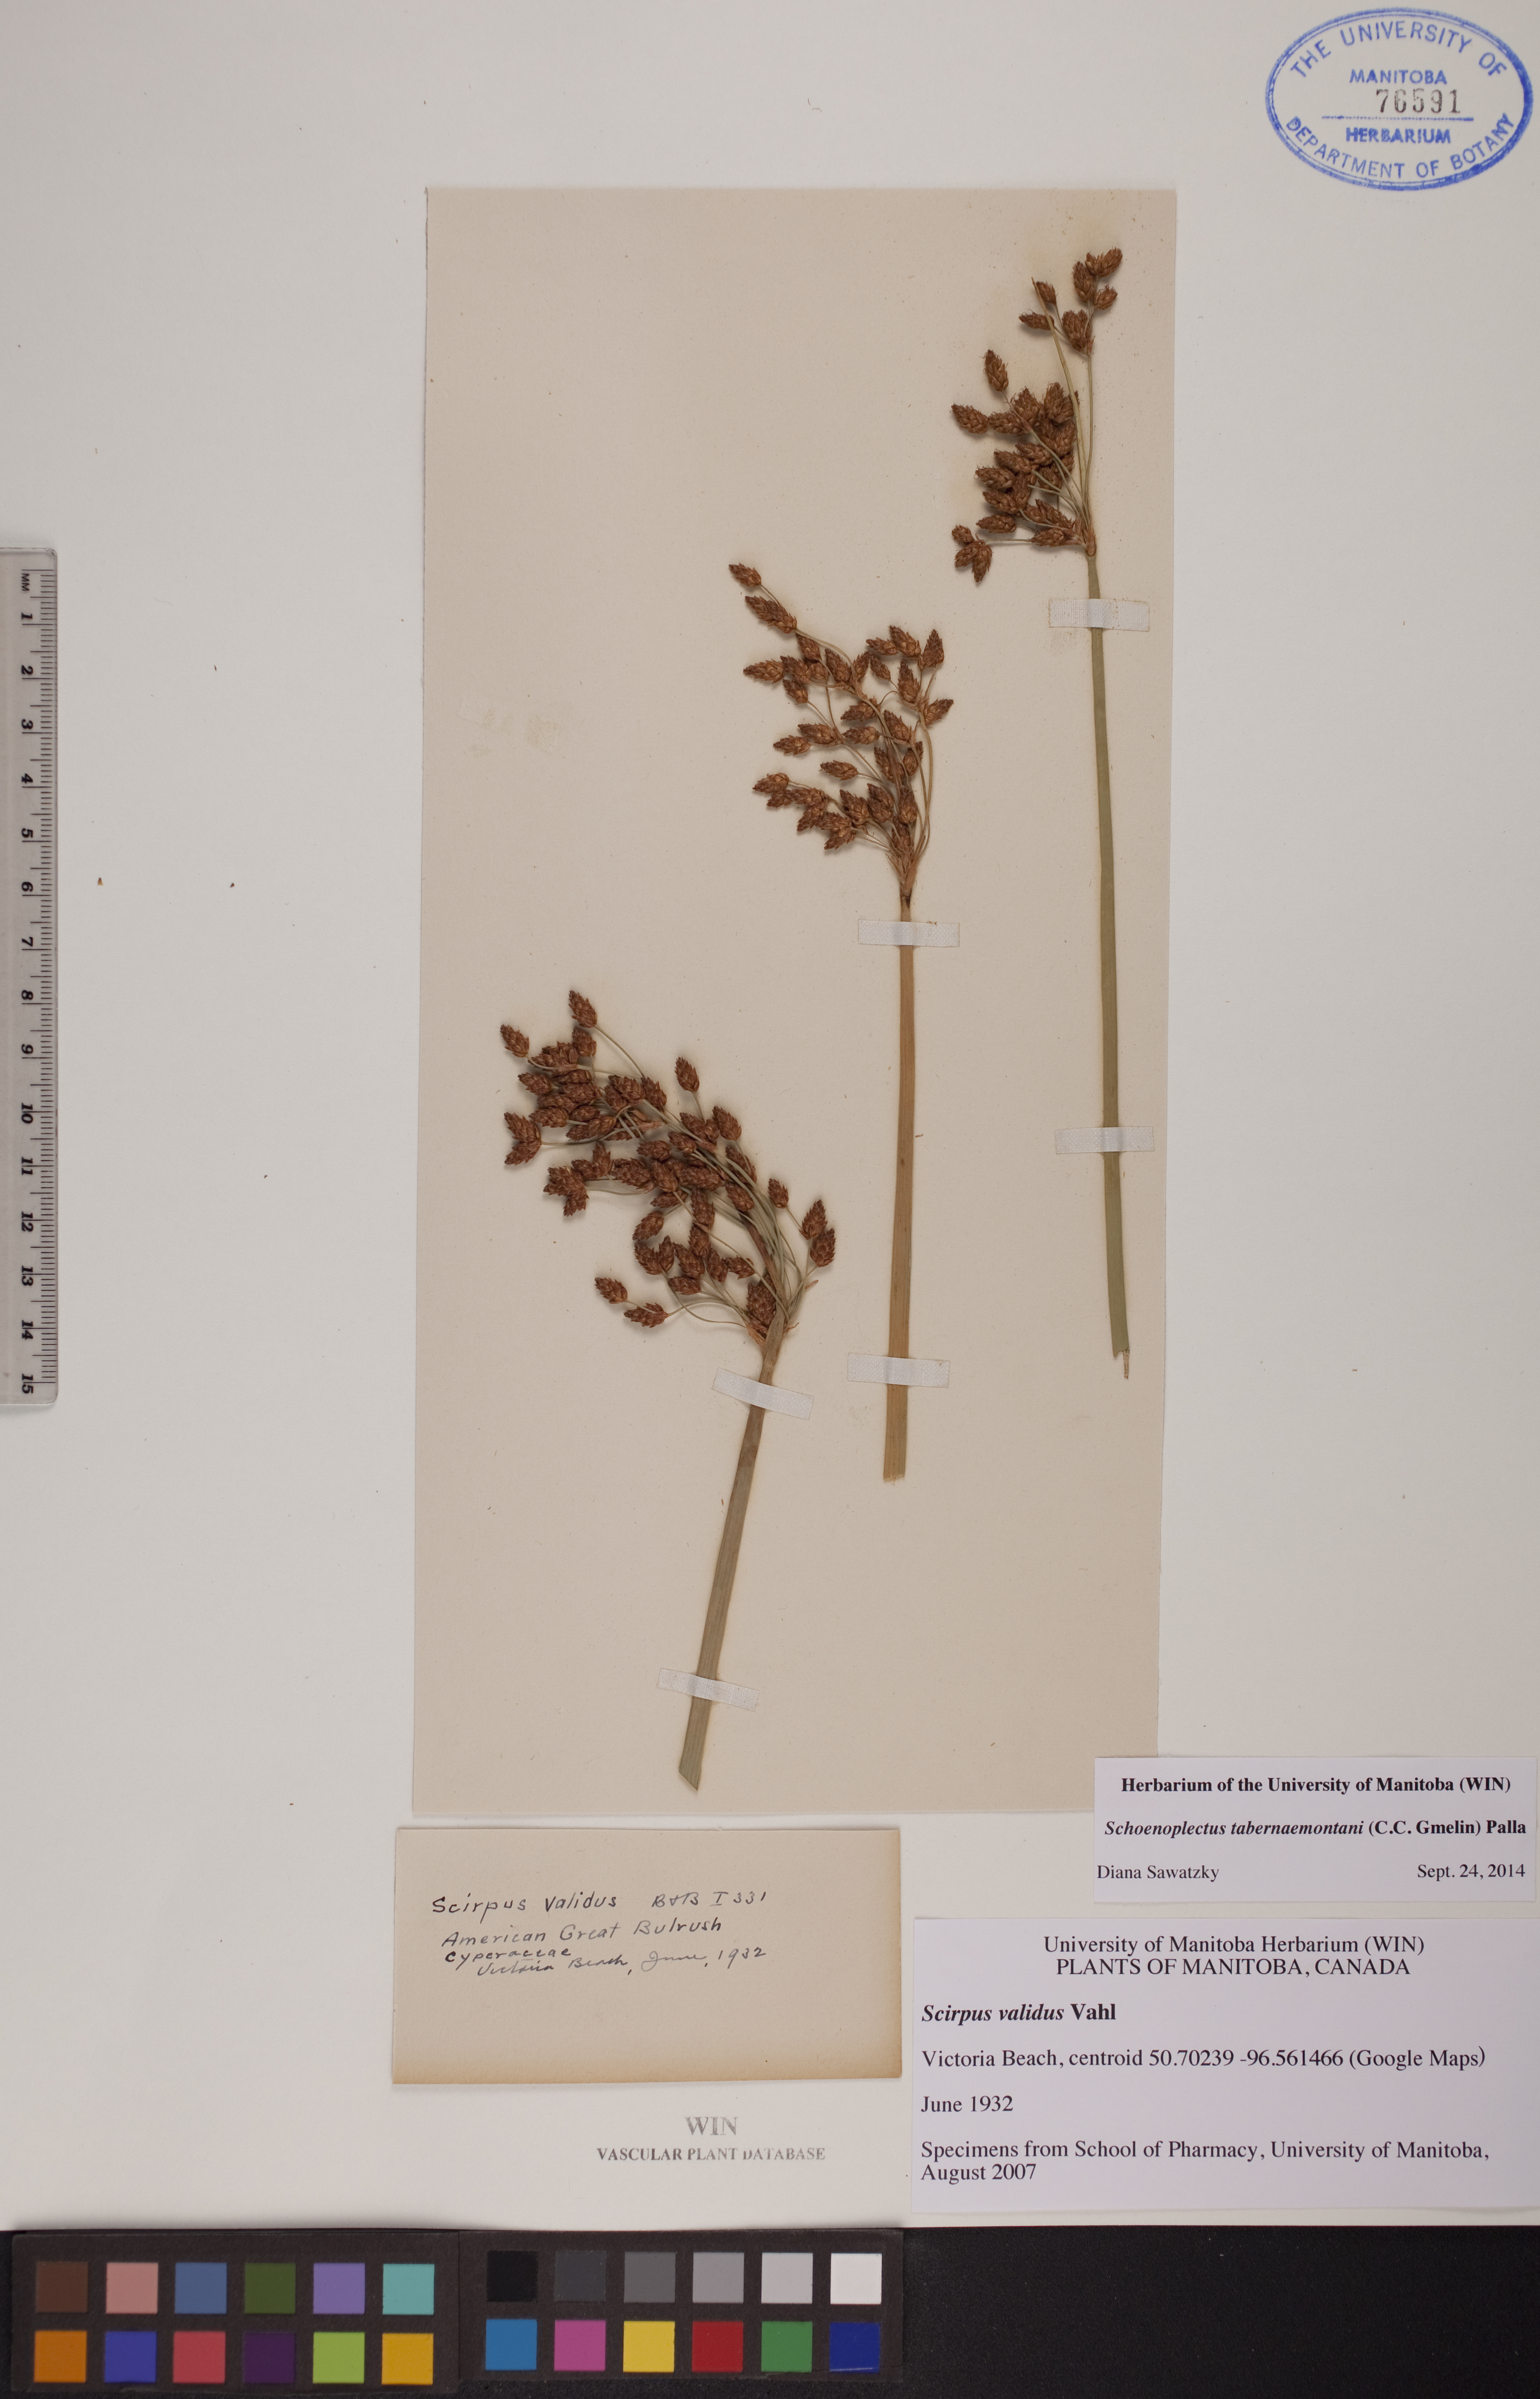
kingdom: Plantae
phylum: Tracheophyta
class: Liliopsida
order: Poales
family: Cyperaceae
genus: Schoenoplectus
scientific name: Schoenoplectus tabernaemontani
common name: Grey club-rush
